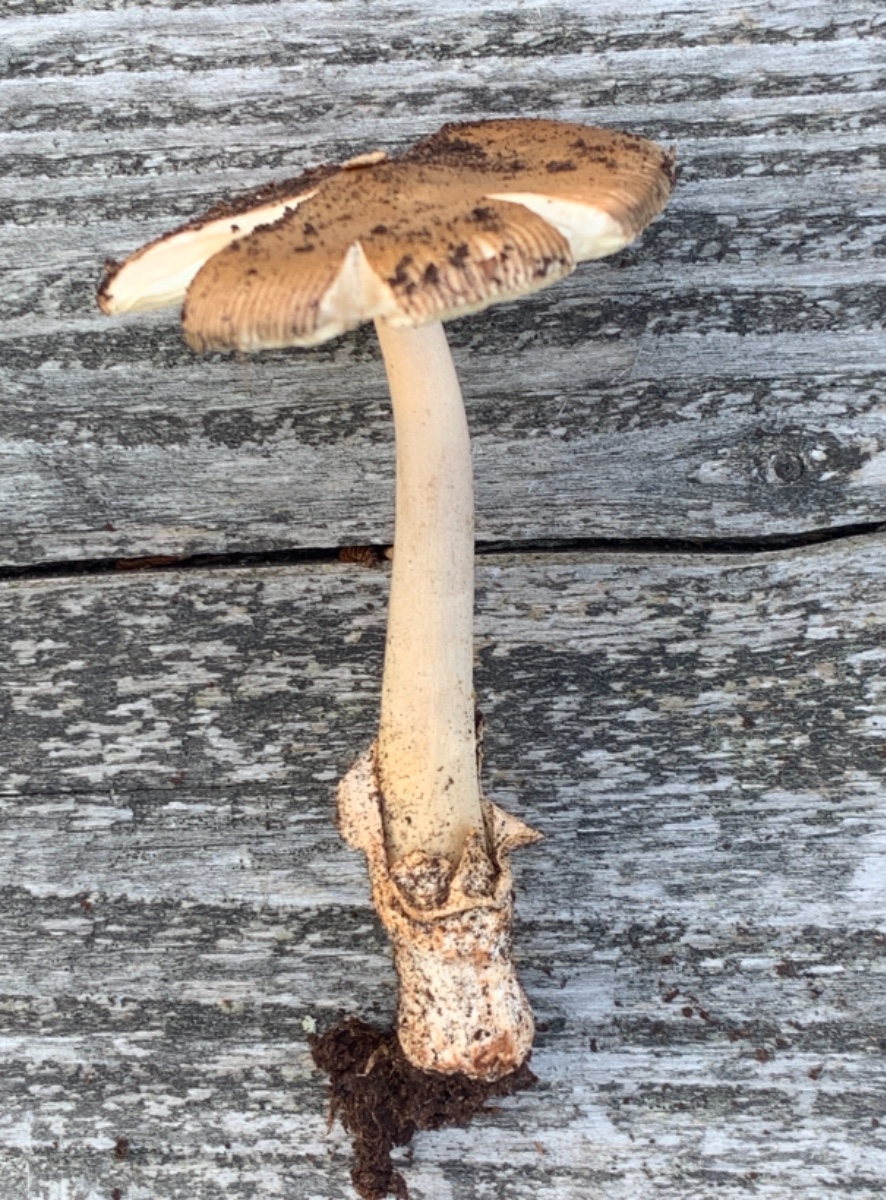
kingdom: Fungi
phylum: Basidiomycota
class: Agaricomycetes
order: Agaricales
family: Amanitaceae
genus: Amanita
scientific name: Amanita fulva
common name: brun kam-fluesvamp
